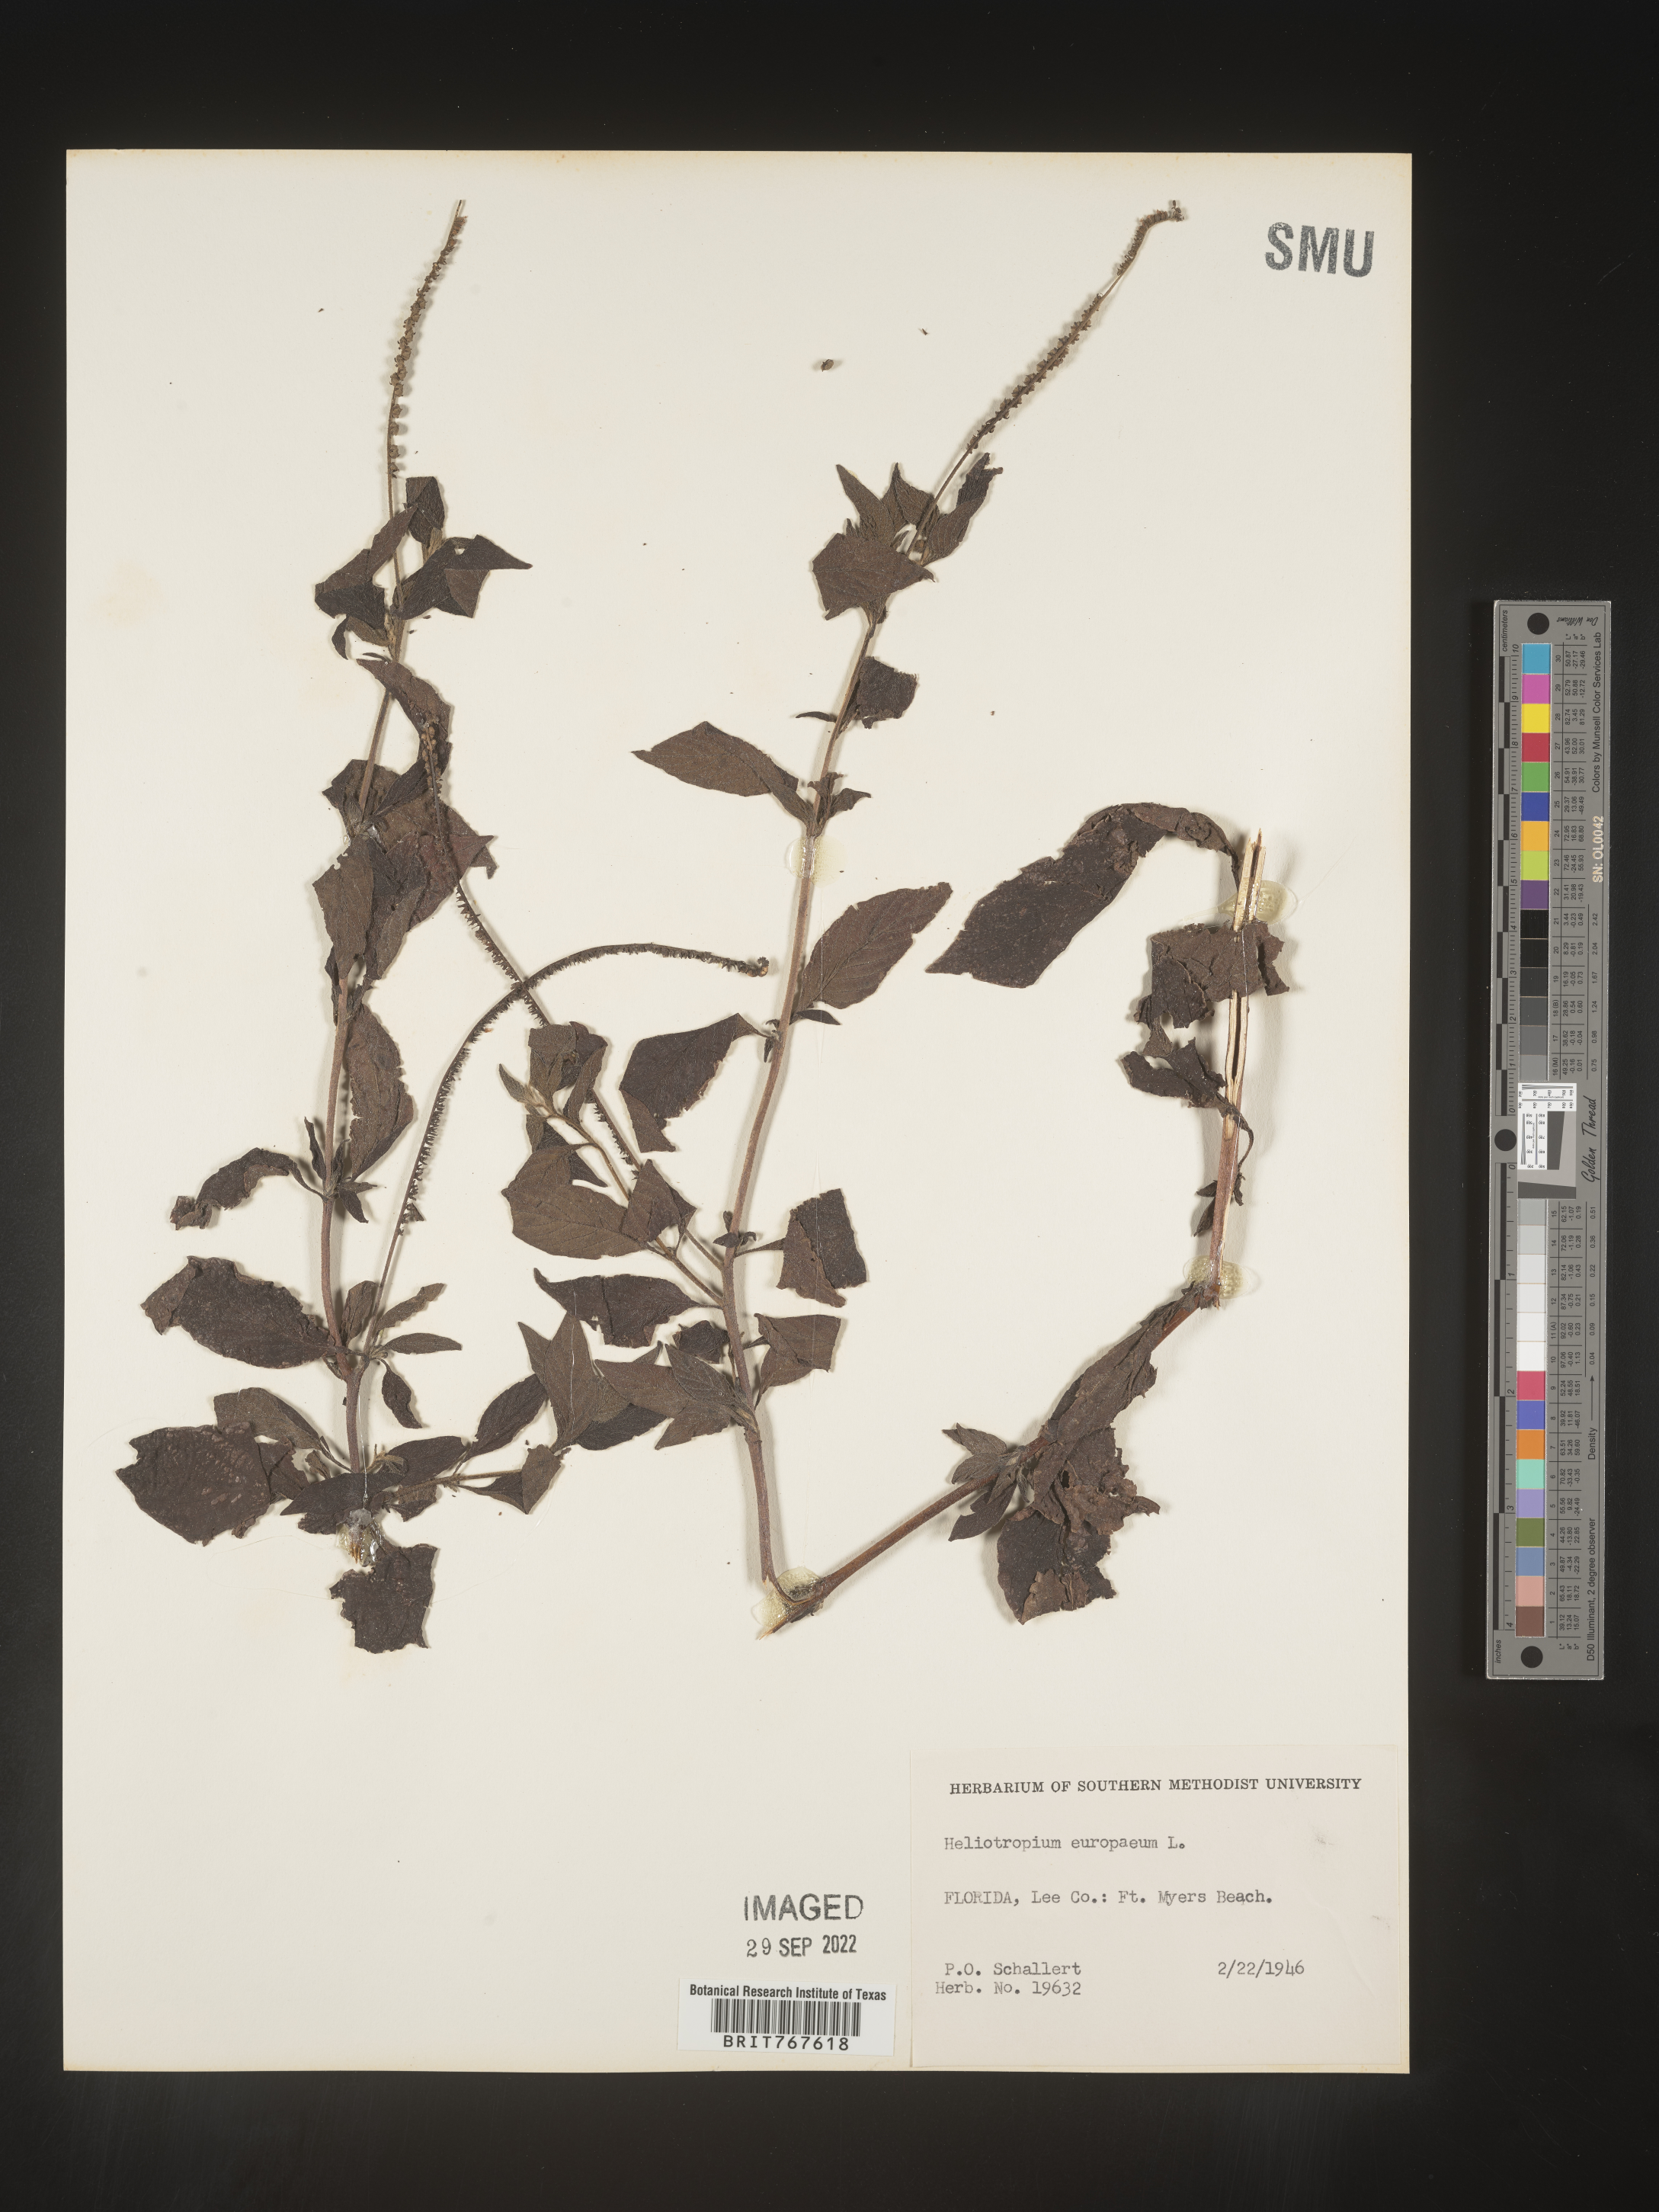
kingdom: Plantae
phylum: Tracheophyta
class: Magnoliopsida
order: Boraginales
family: Heliotropiaceae
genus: Heliotropium
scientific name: Heliotropium
